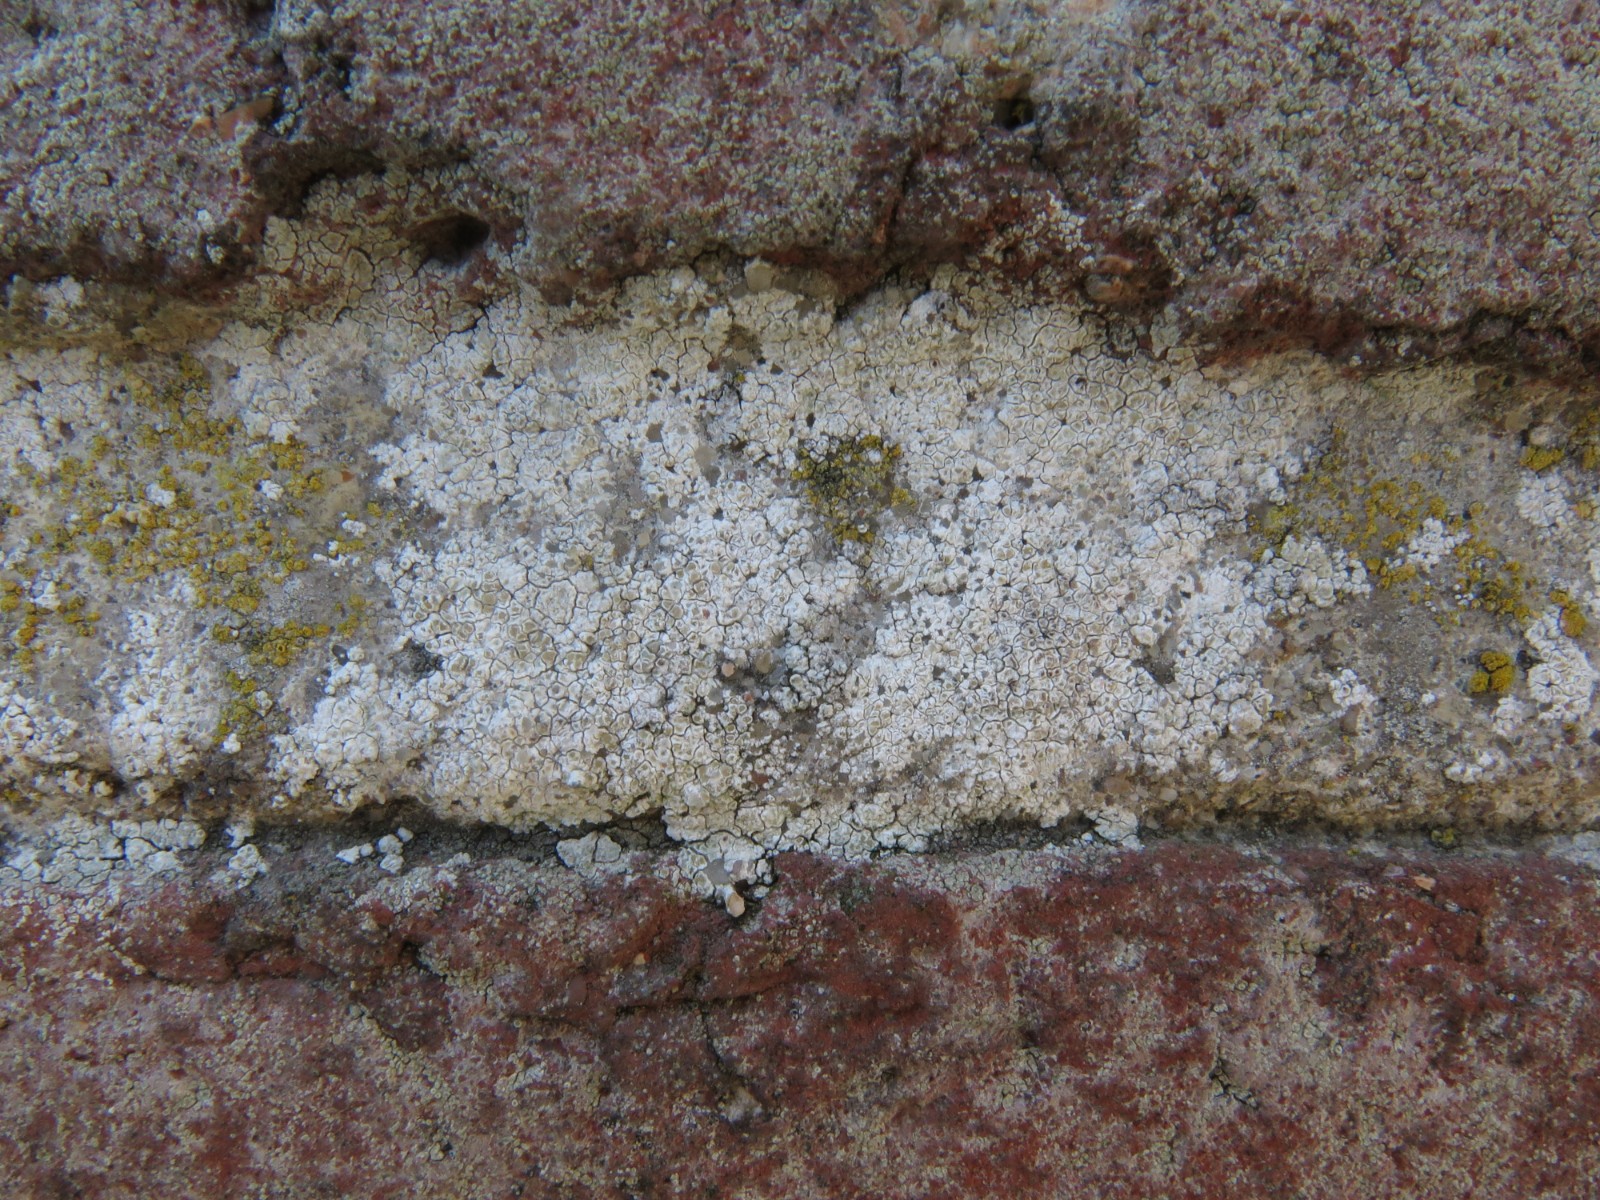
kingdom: Fungi
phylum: Ascomycota
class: Lecanoromycetes
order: Lecanorales
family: Lecanoraceae
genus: Polyozosia
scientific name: Polyozosia albescens
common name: cement-kantskivelav
